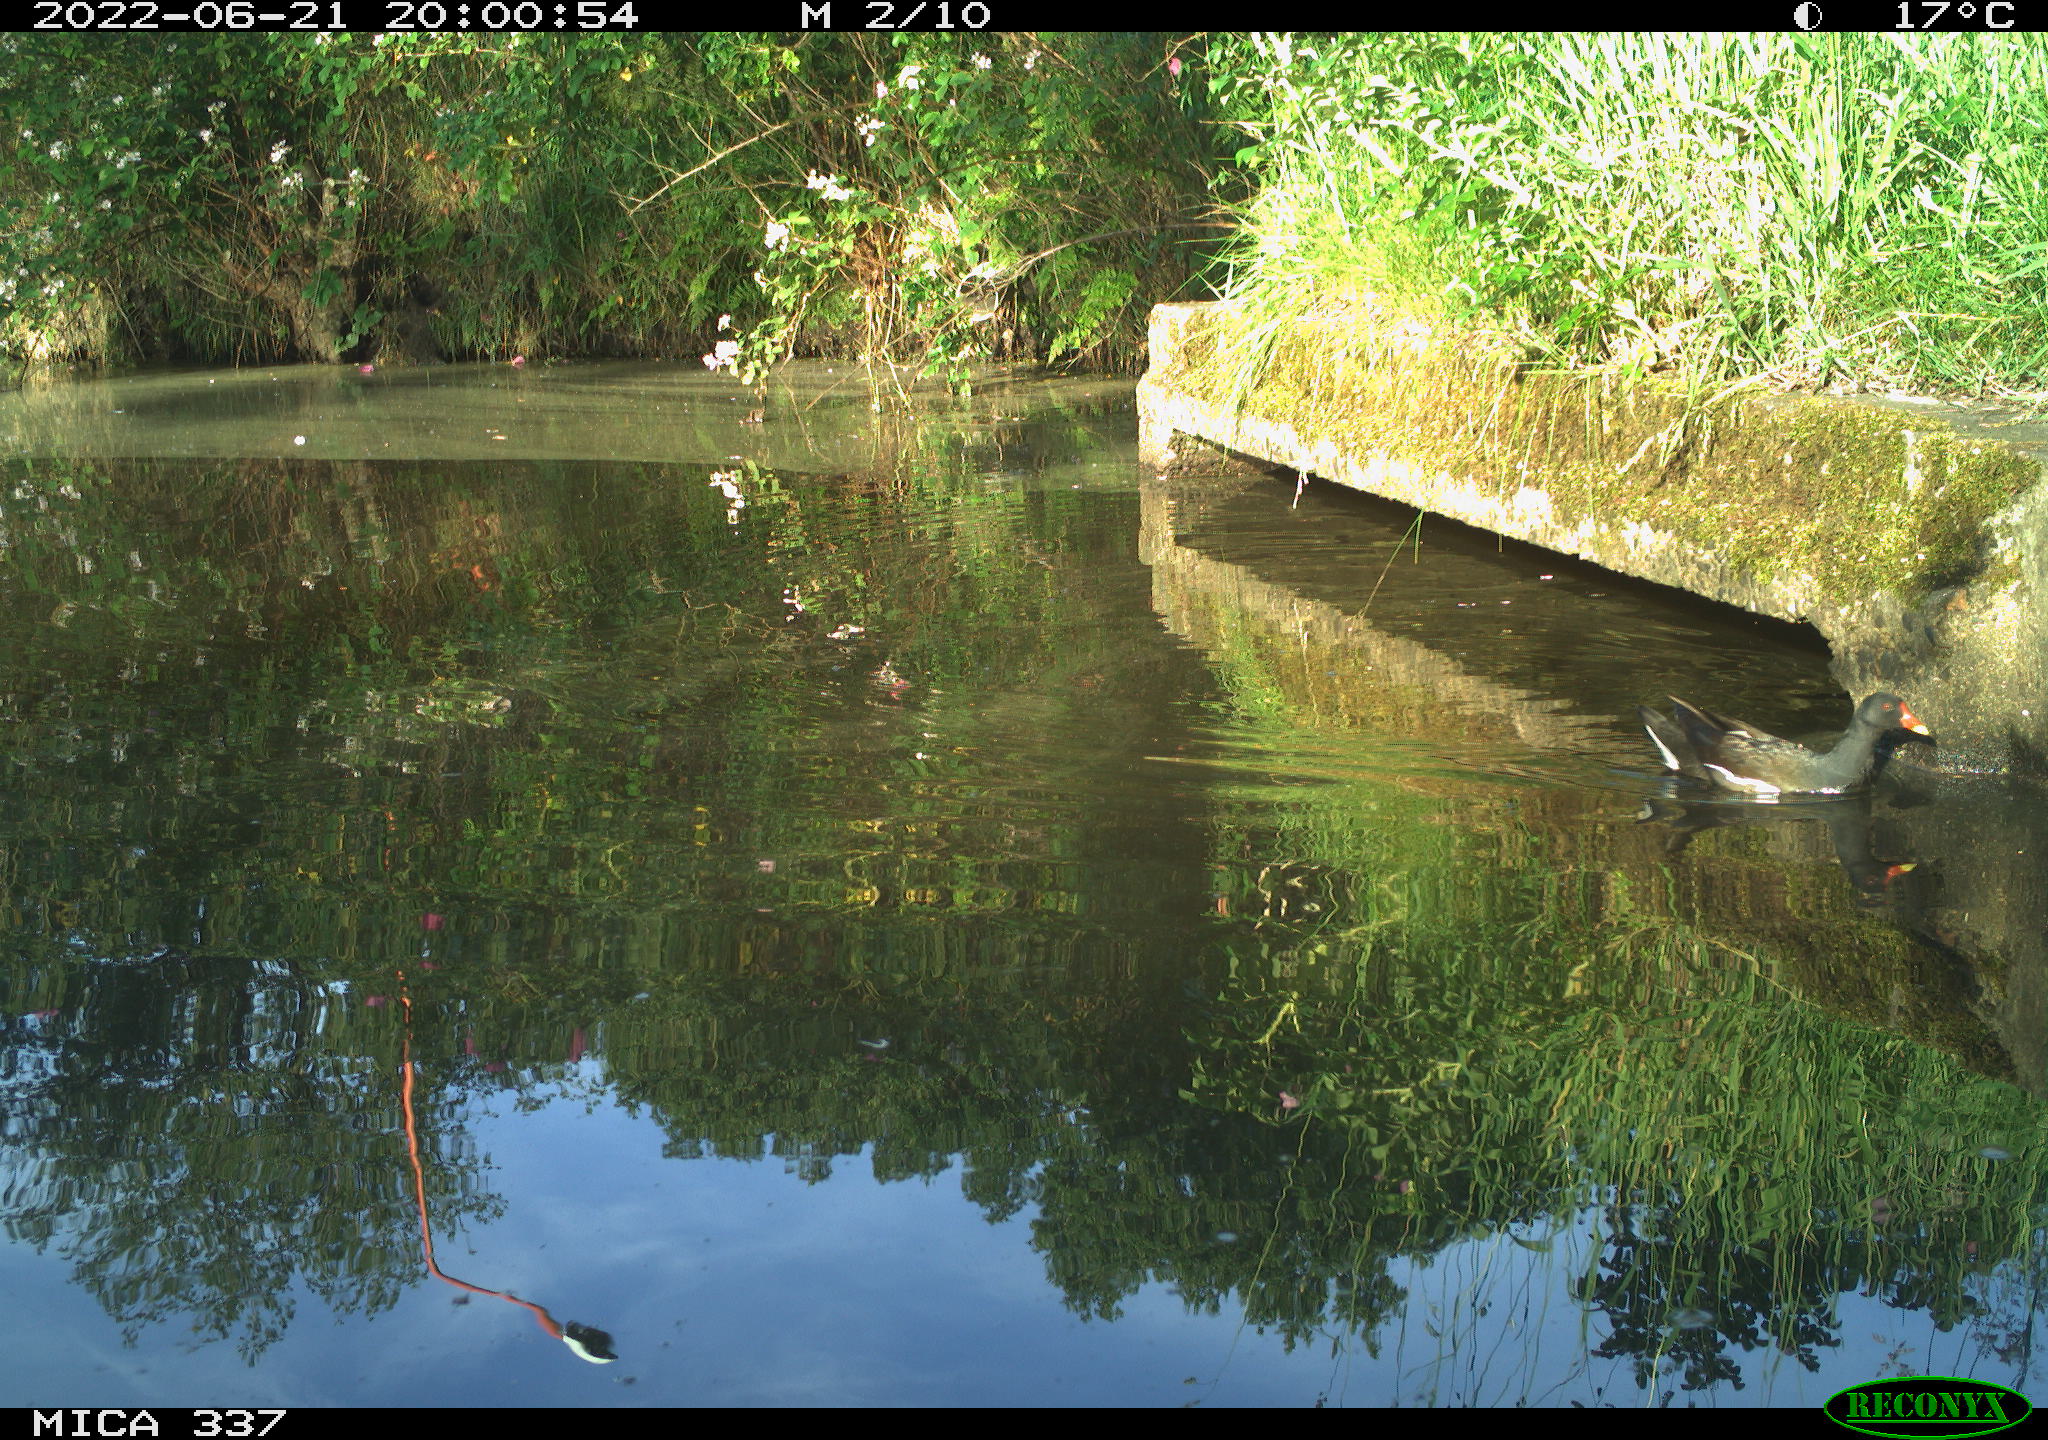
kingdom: Animalia
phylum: Chordata
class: Aves
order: Gruiformes
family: Rallidae
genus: Gallinula
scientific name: Gallinula chloropus
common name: Common moorhen
